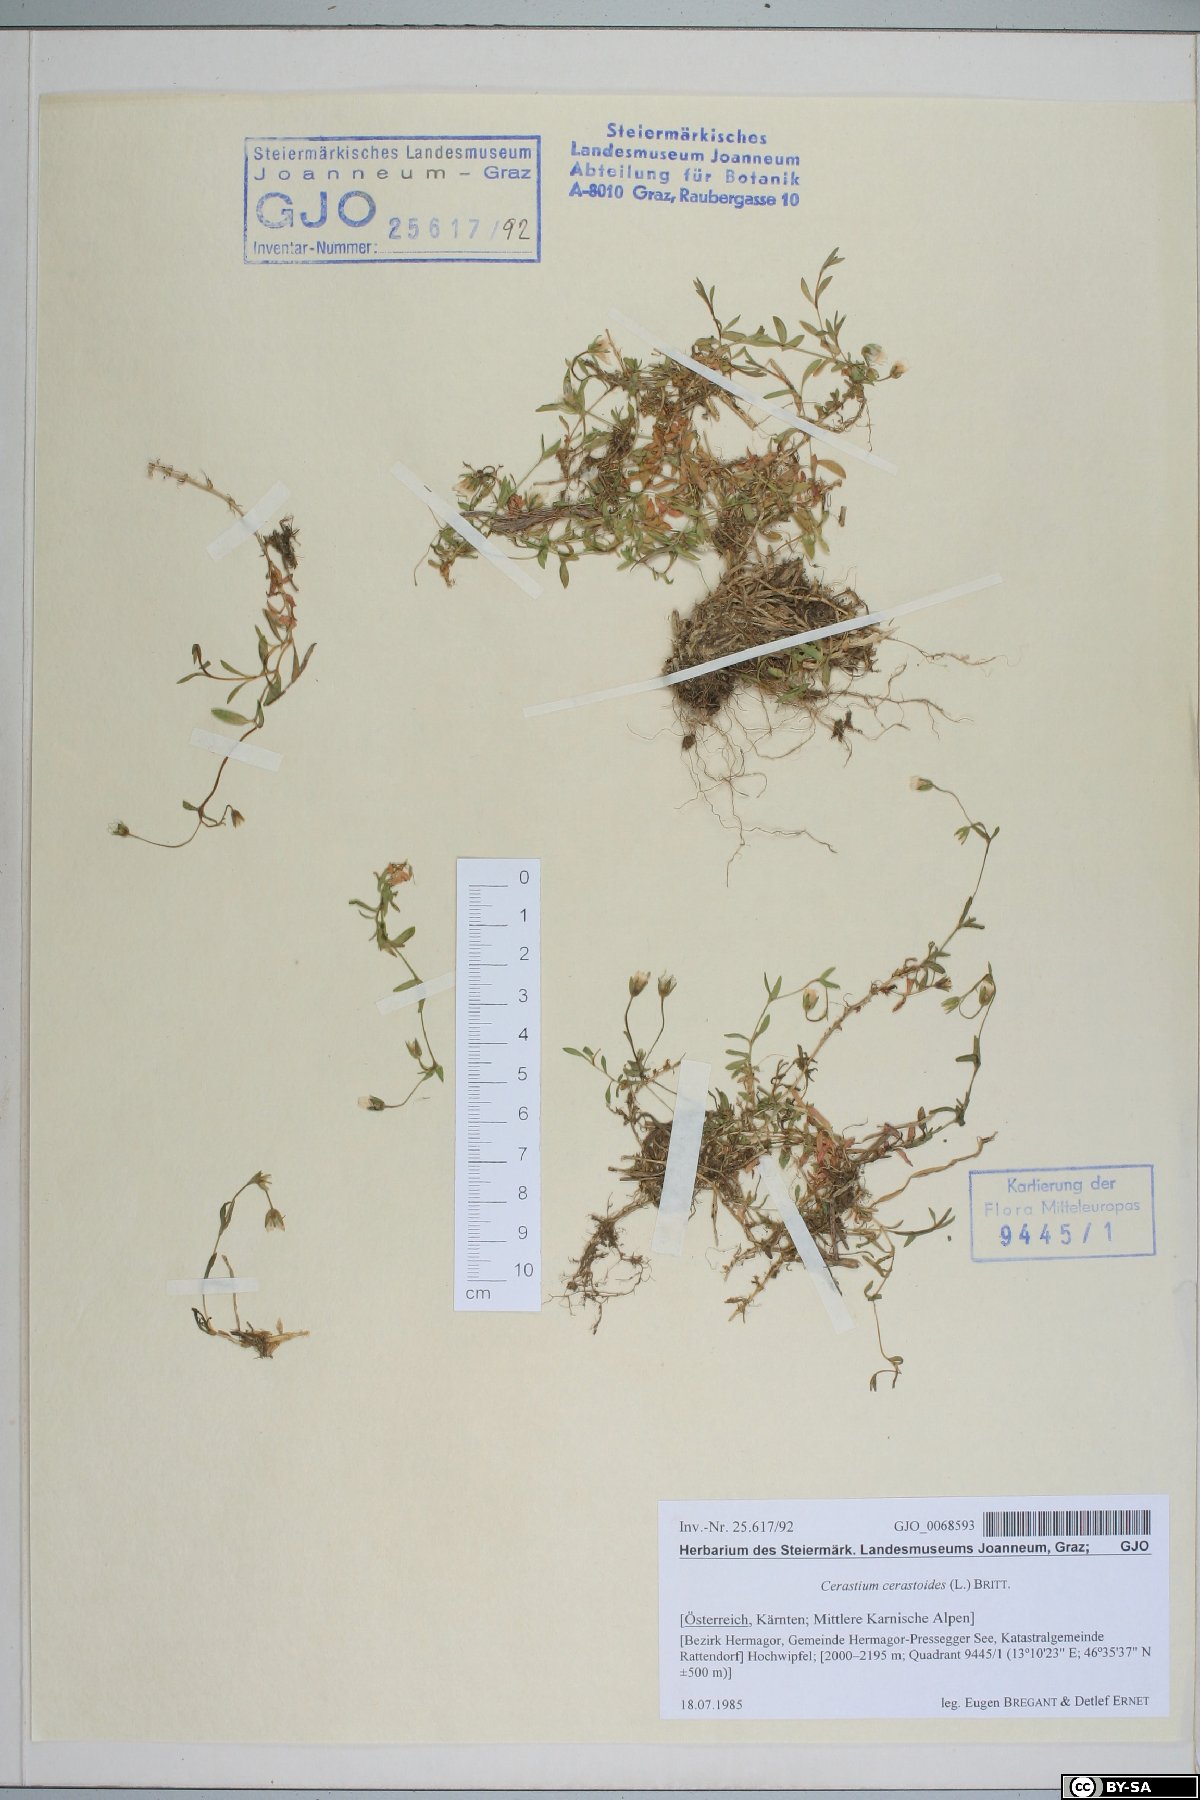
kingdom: Plantae
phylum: Tracheophyta
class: Magnoliopsida
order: Caryophyllales
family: Caryophyllaceae
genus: Dichodon
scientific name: Dichodon cerastoides
